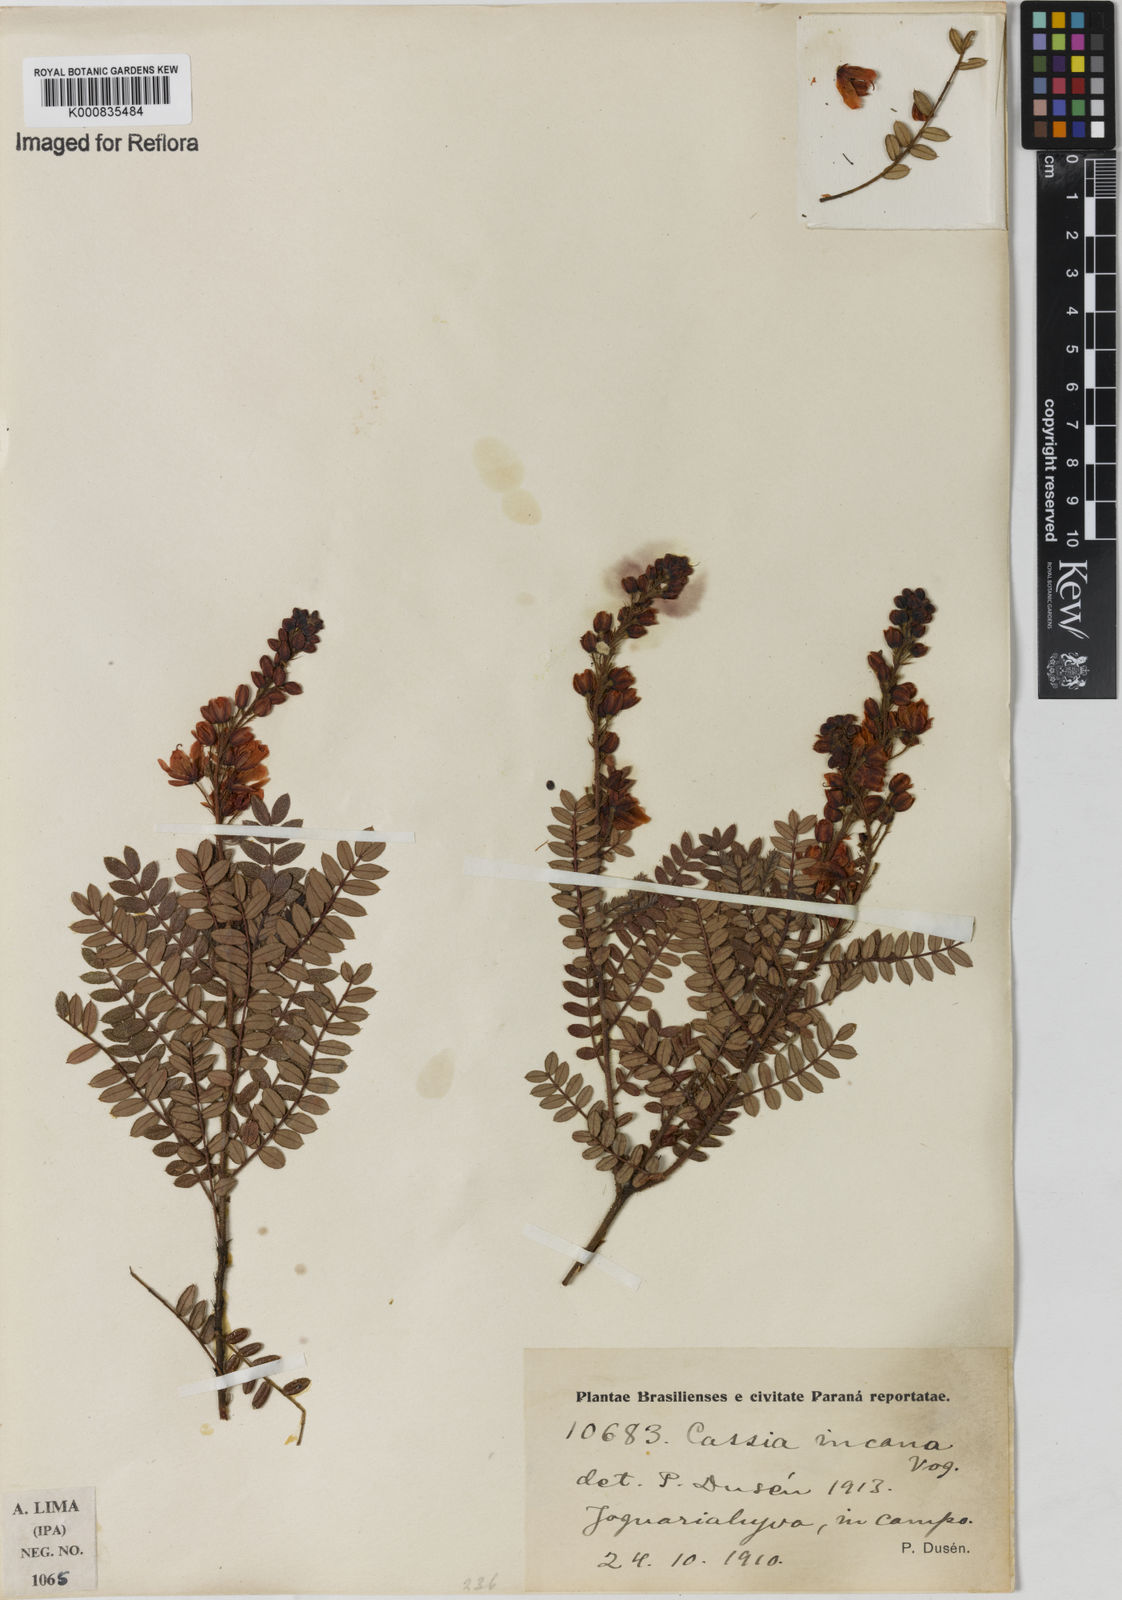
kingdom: Plantae
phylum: Tracheophyta
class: Magnoliopsida
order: Fabales
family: Fabaceae
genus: Chamaecrista
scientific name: Chamaecrista incana
